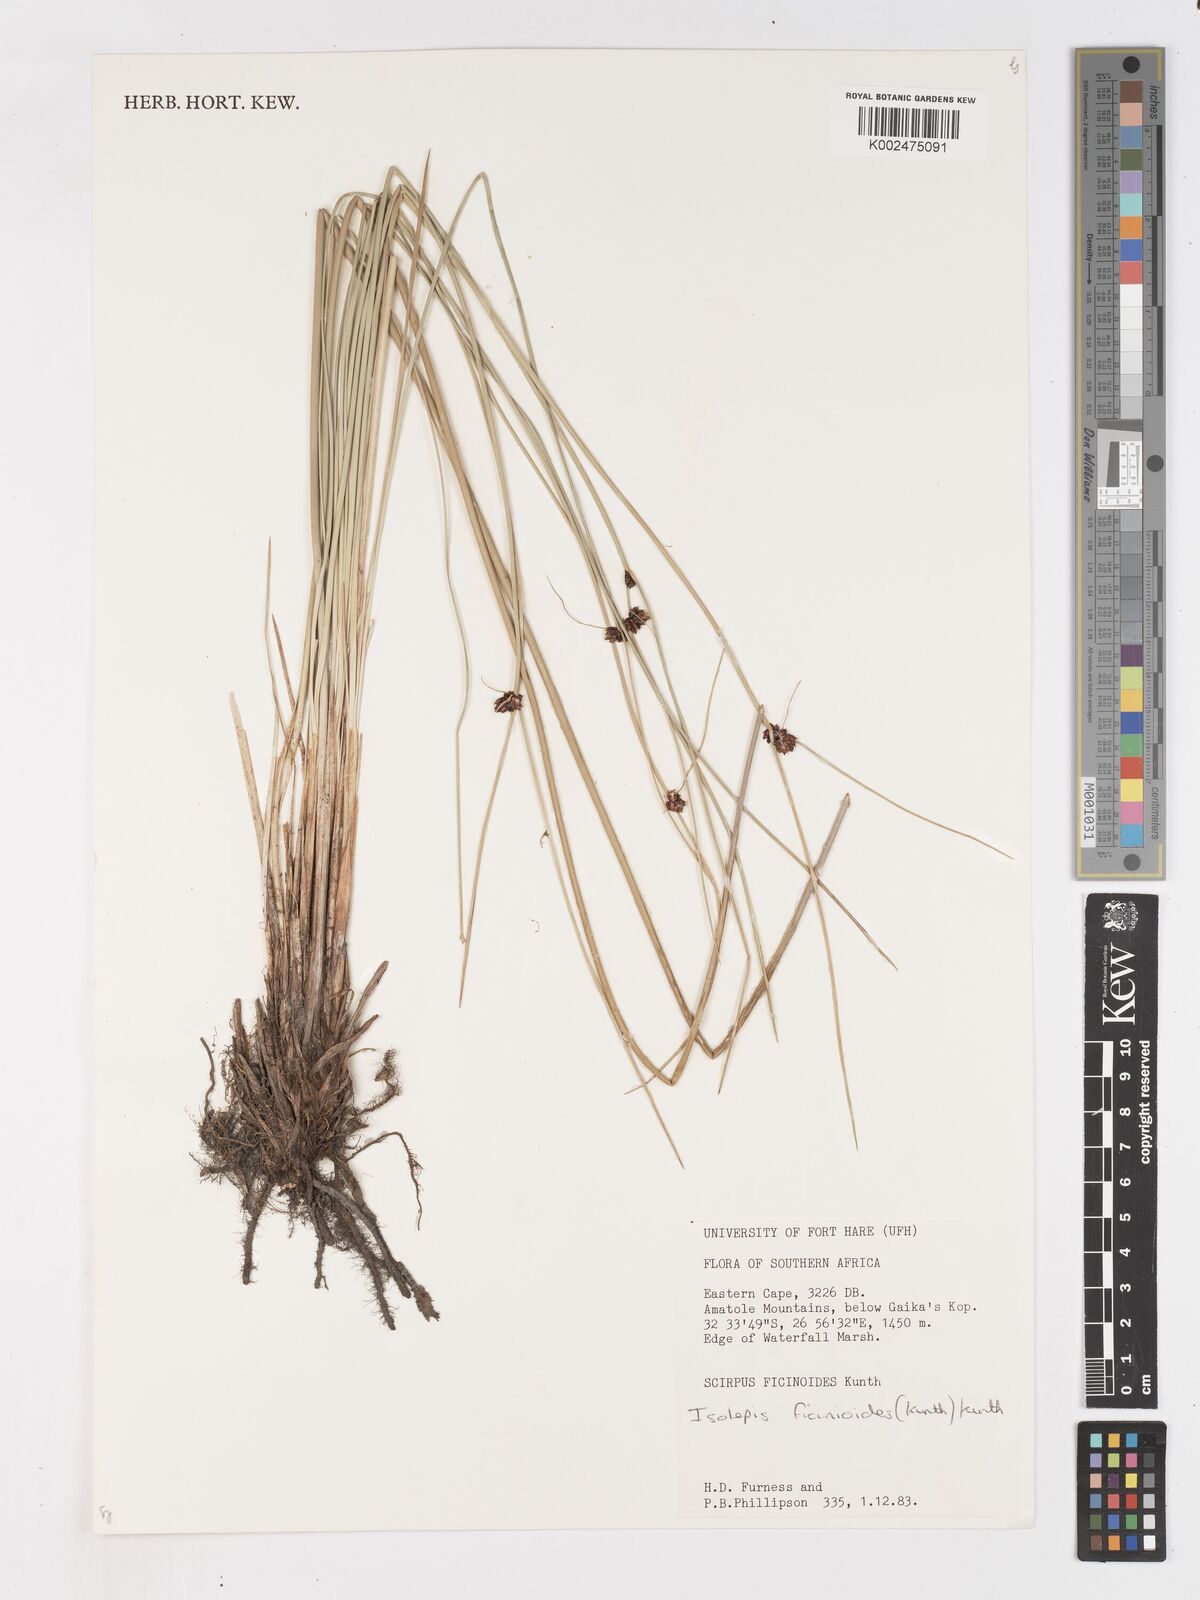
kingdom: Plantae
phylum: Tracheophyta
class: Liliopsida
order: Poales
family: Cyperaceae
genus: Ficinia
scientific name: Ficinia
